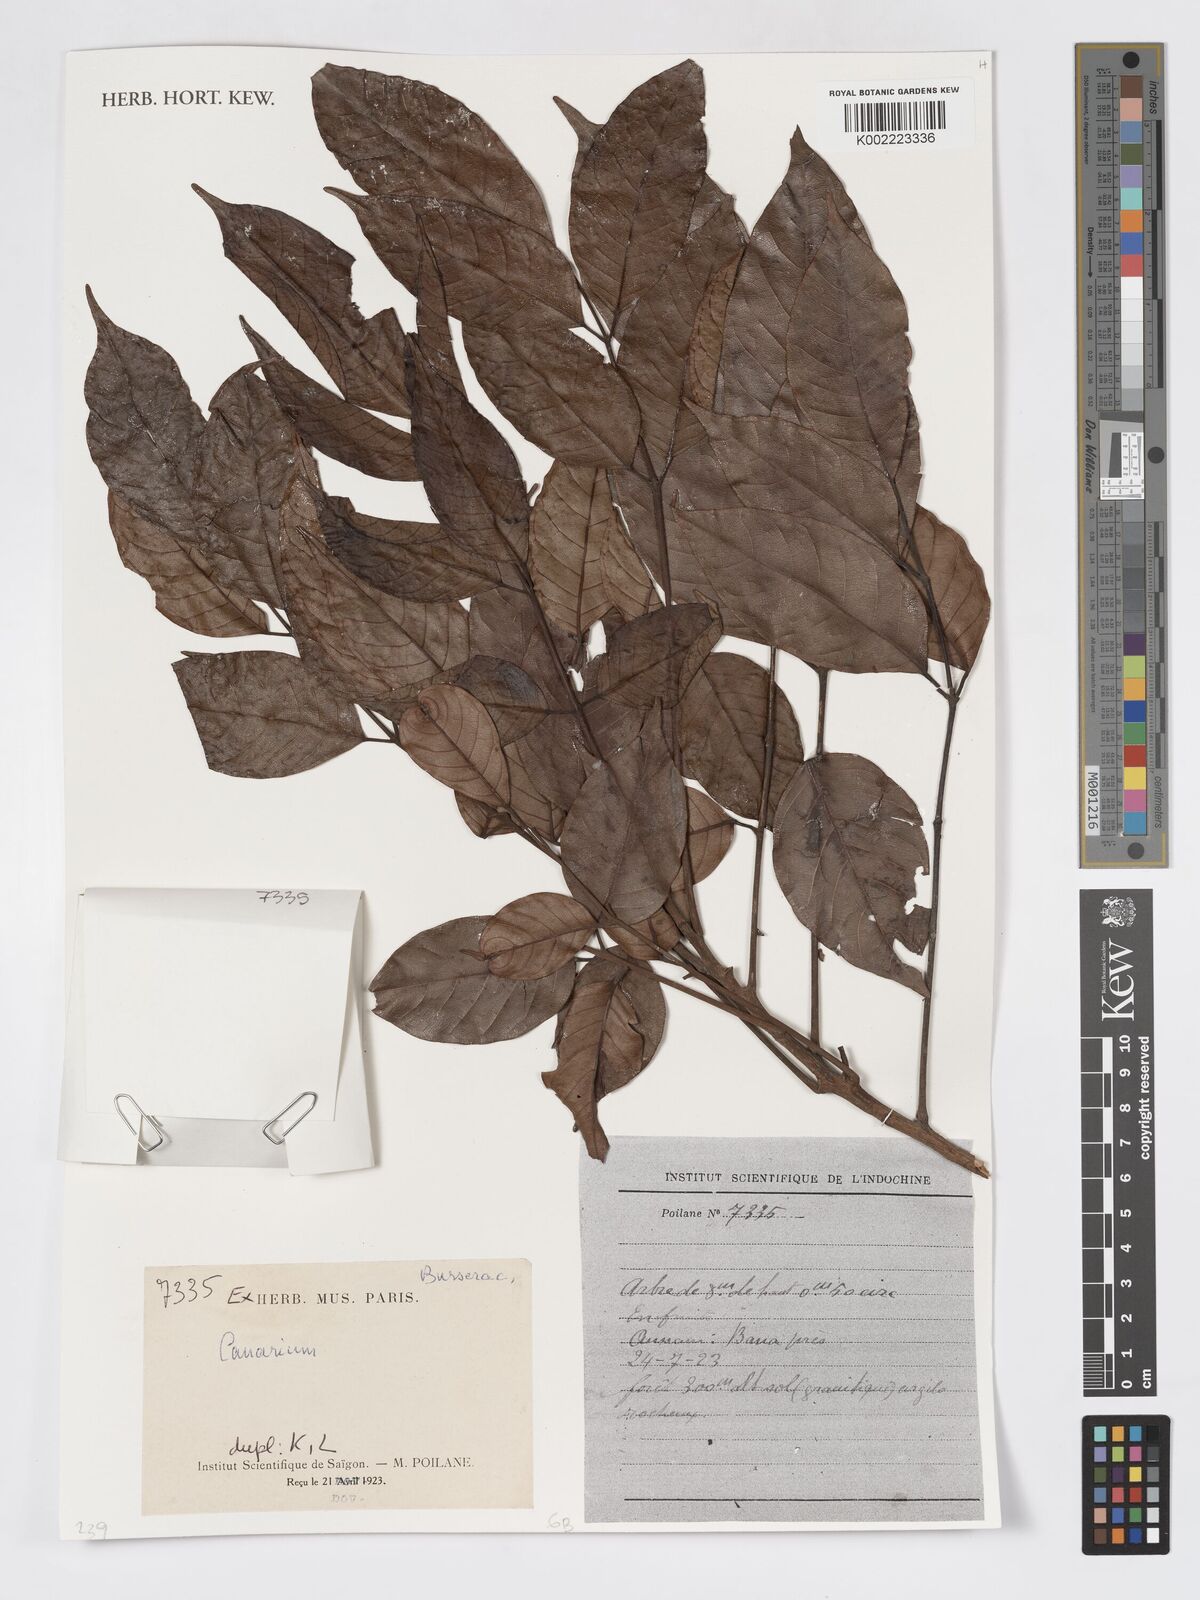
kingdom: Plantae
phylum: Tracheophyta
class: Magnoliopsida
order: Sapindales
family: Burseraceae
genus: Canarium
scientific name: Canarium
